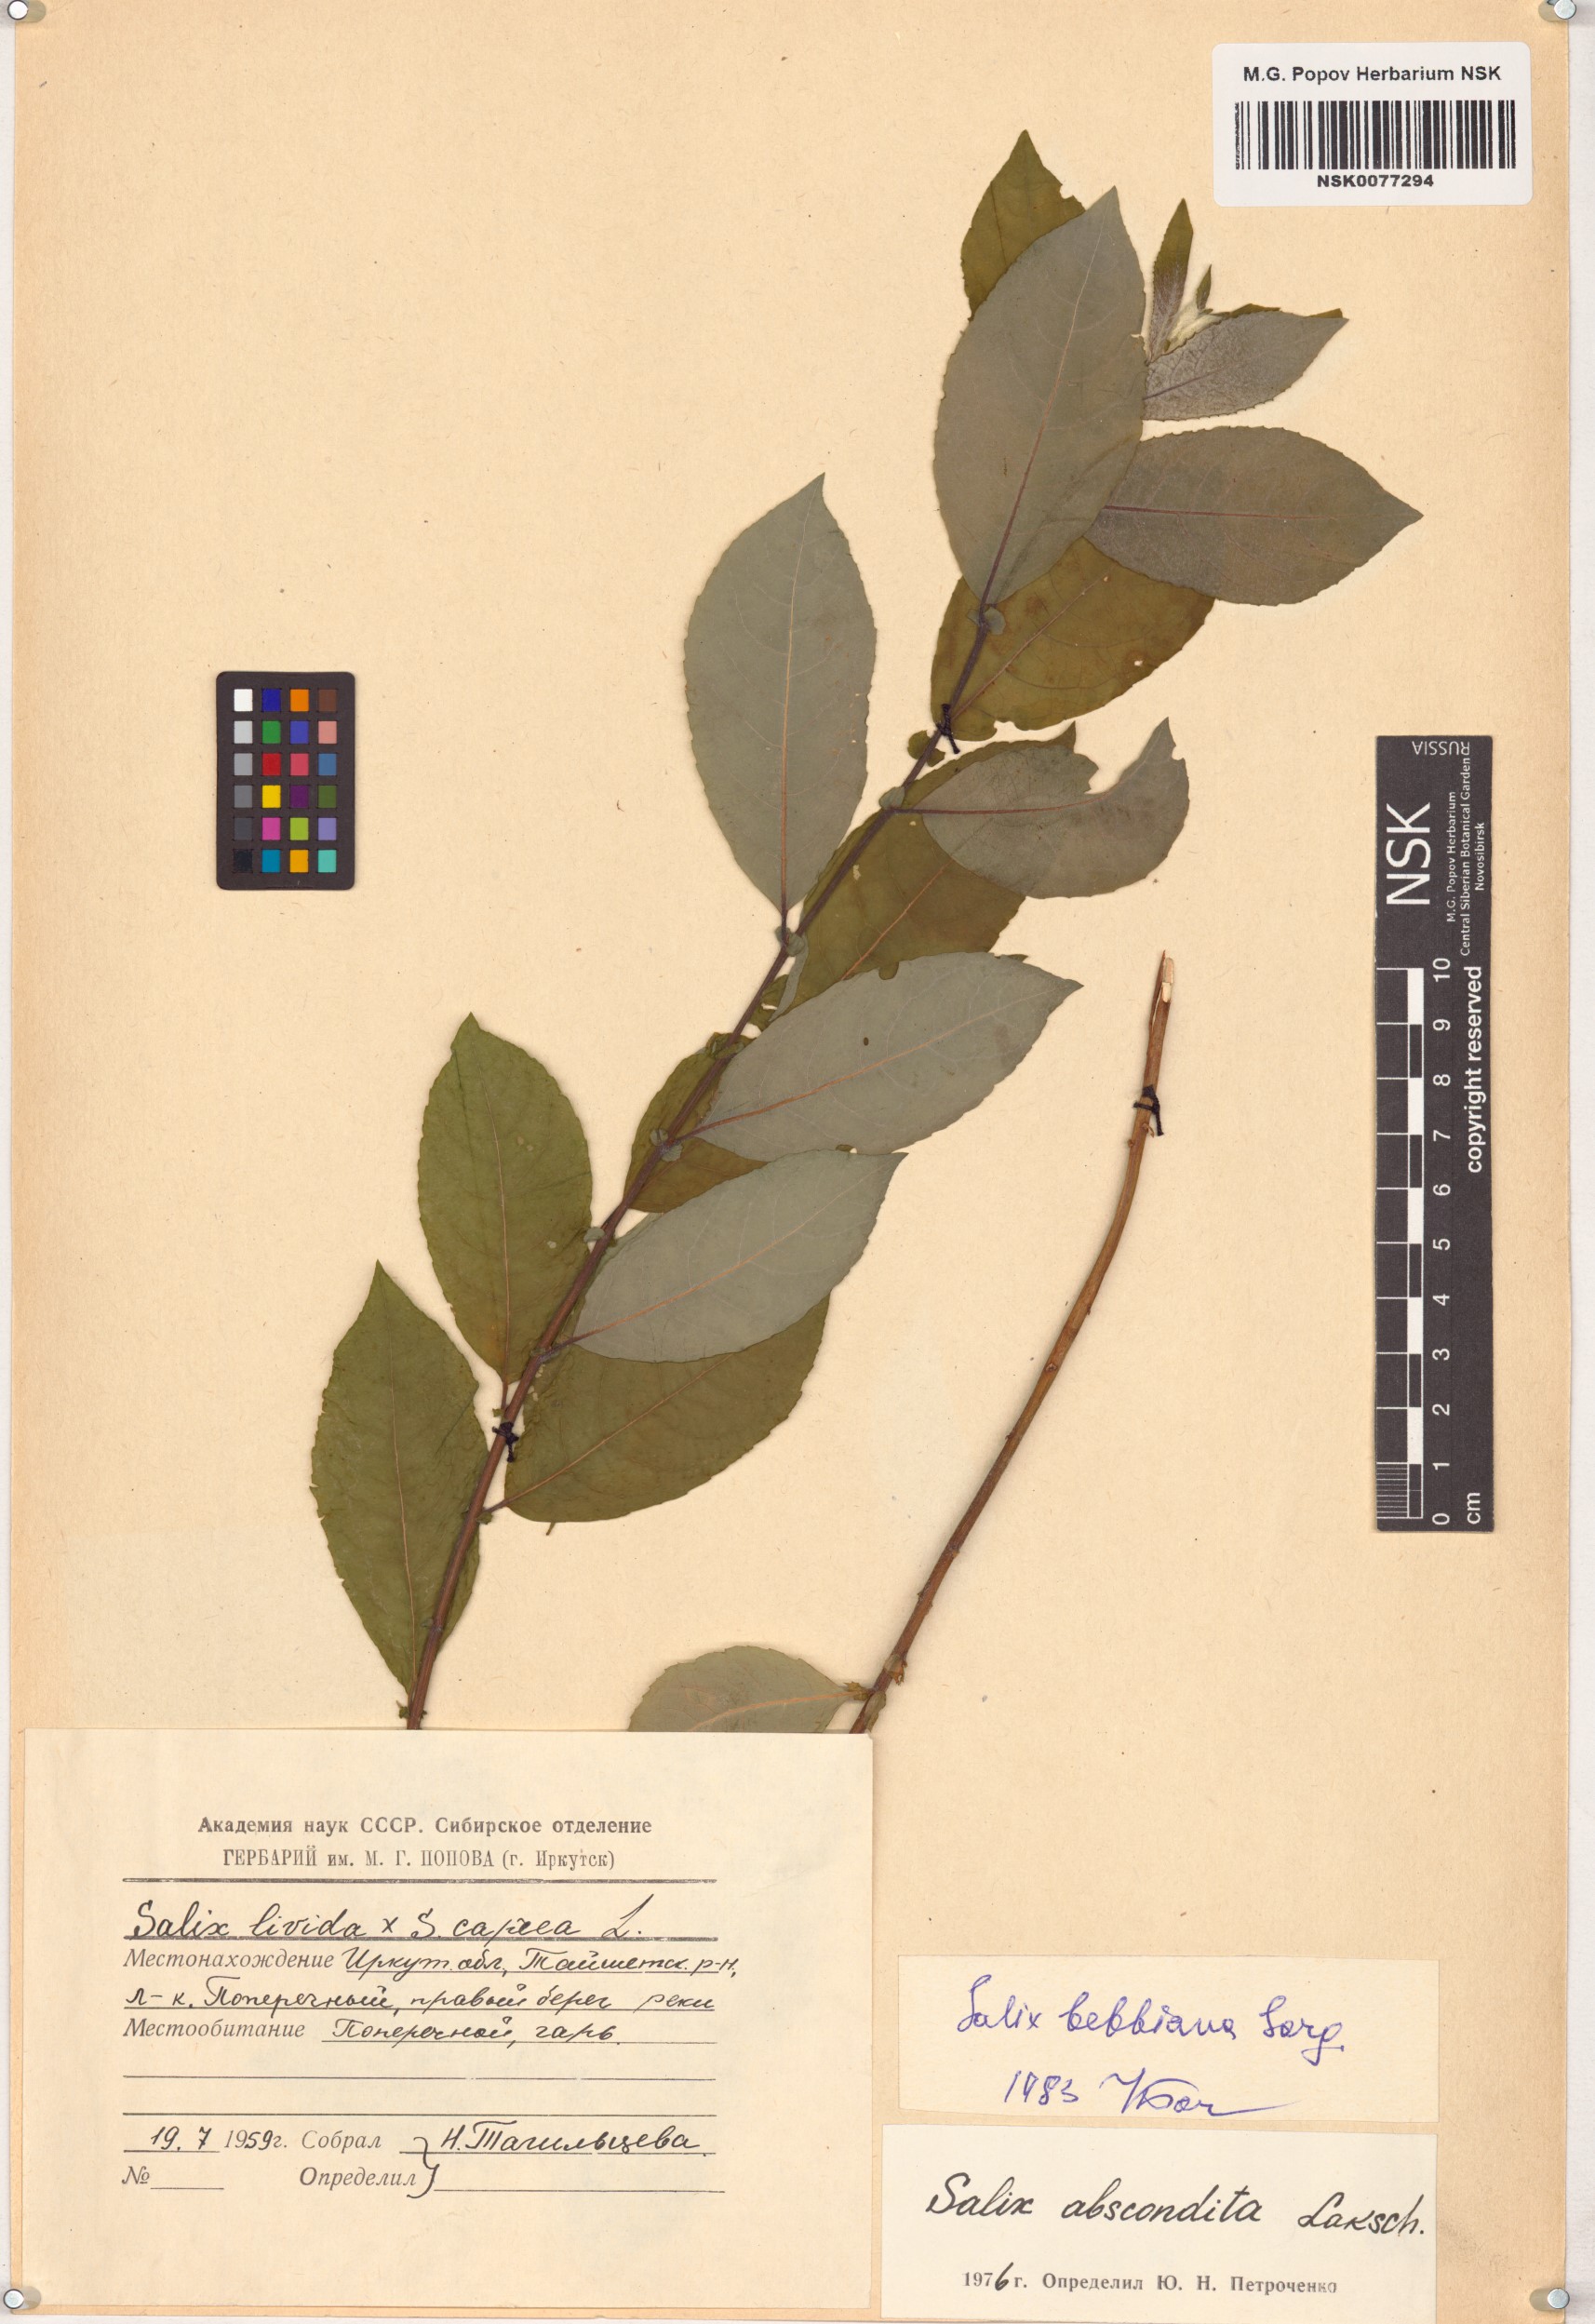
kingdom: Plantae
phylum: Tracheophyta
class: Magnoliopsida
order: Malpighiales
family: Salicaceae
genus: Salix
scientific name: Salix bebbiana
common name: Bebb's willow
